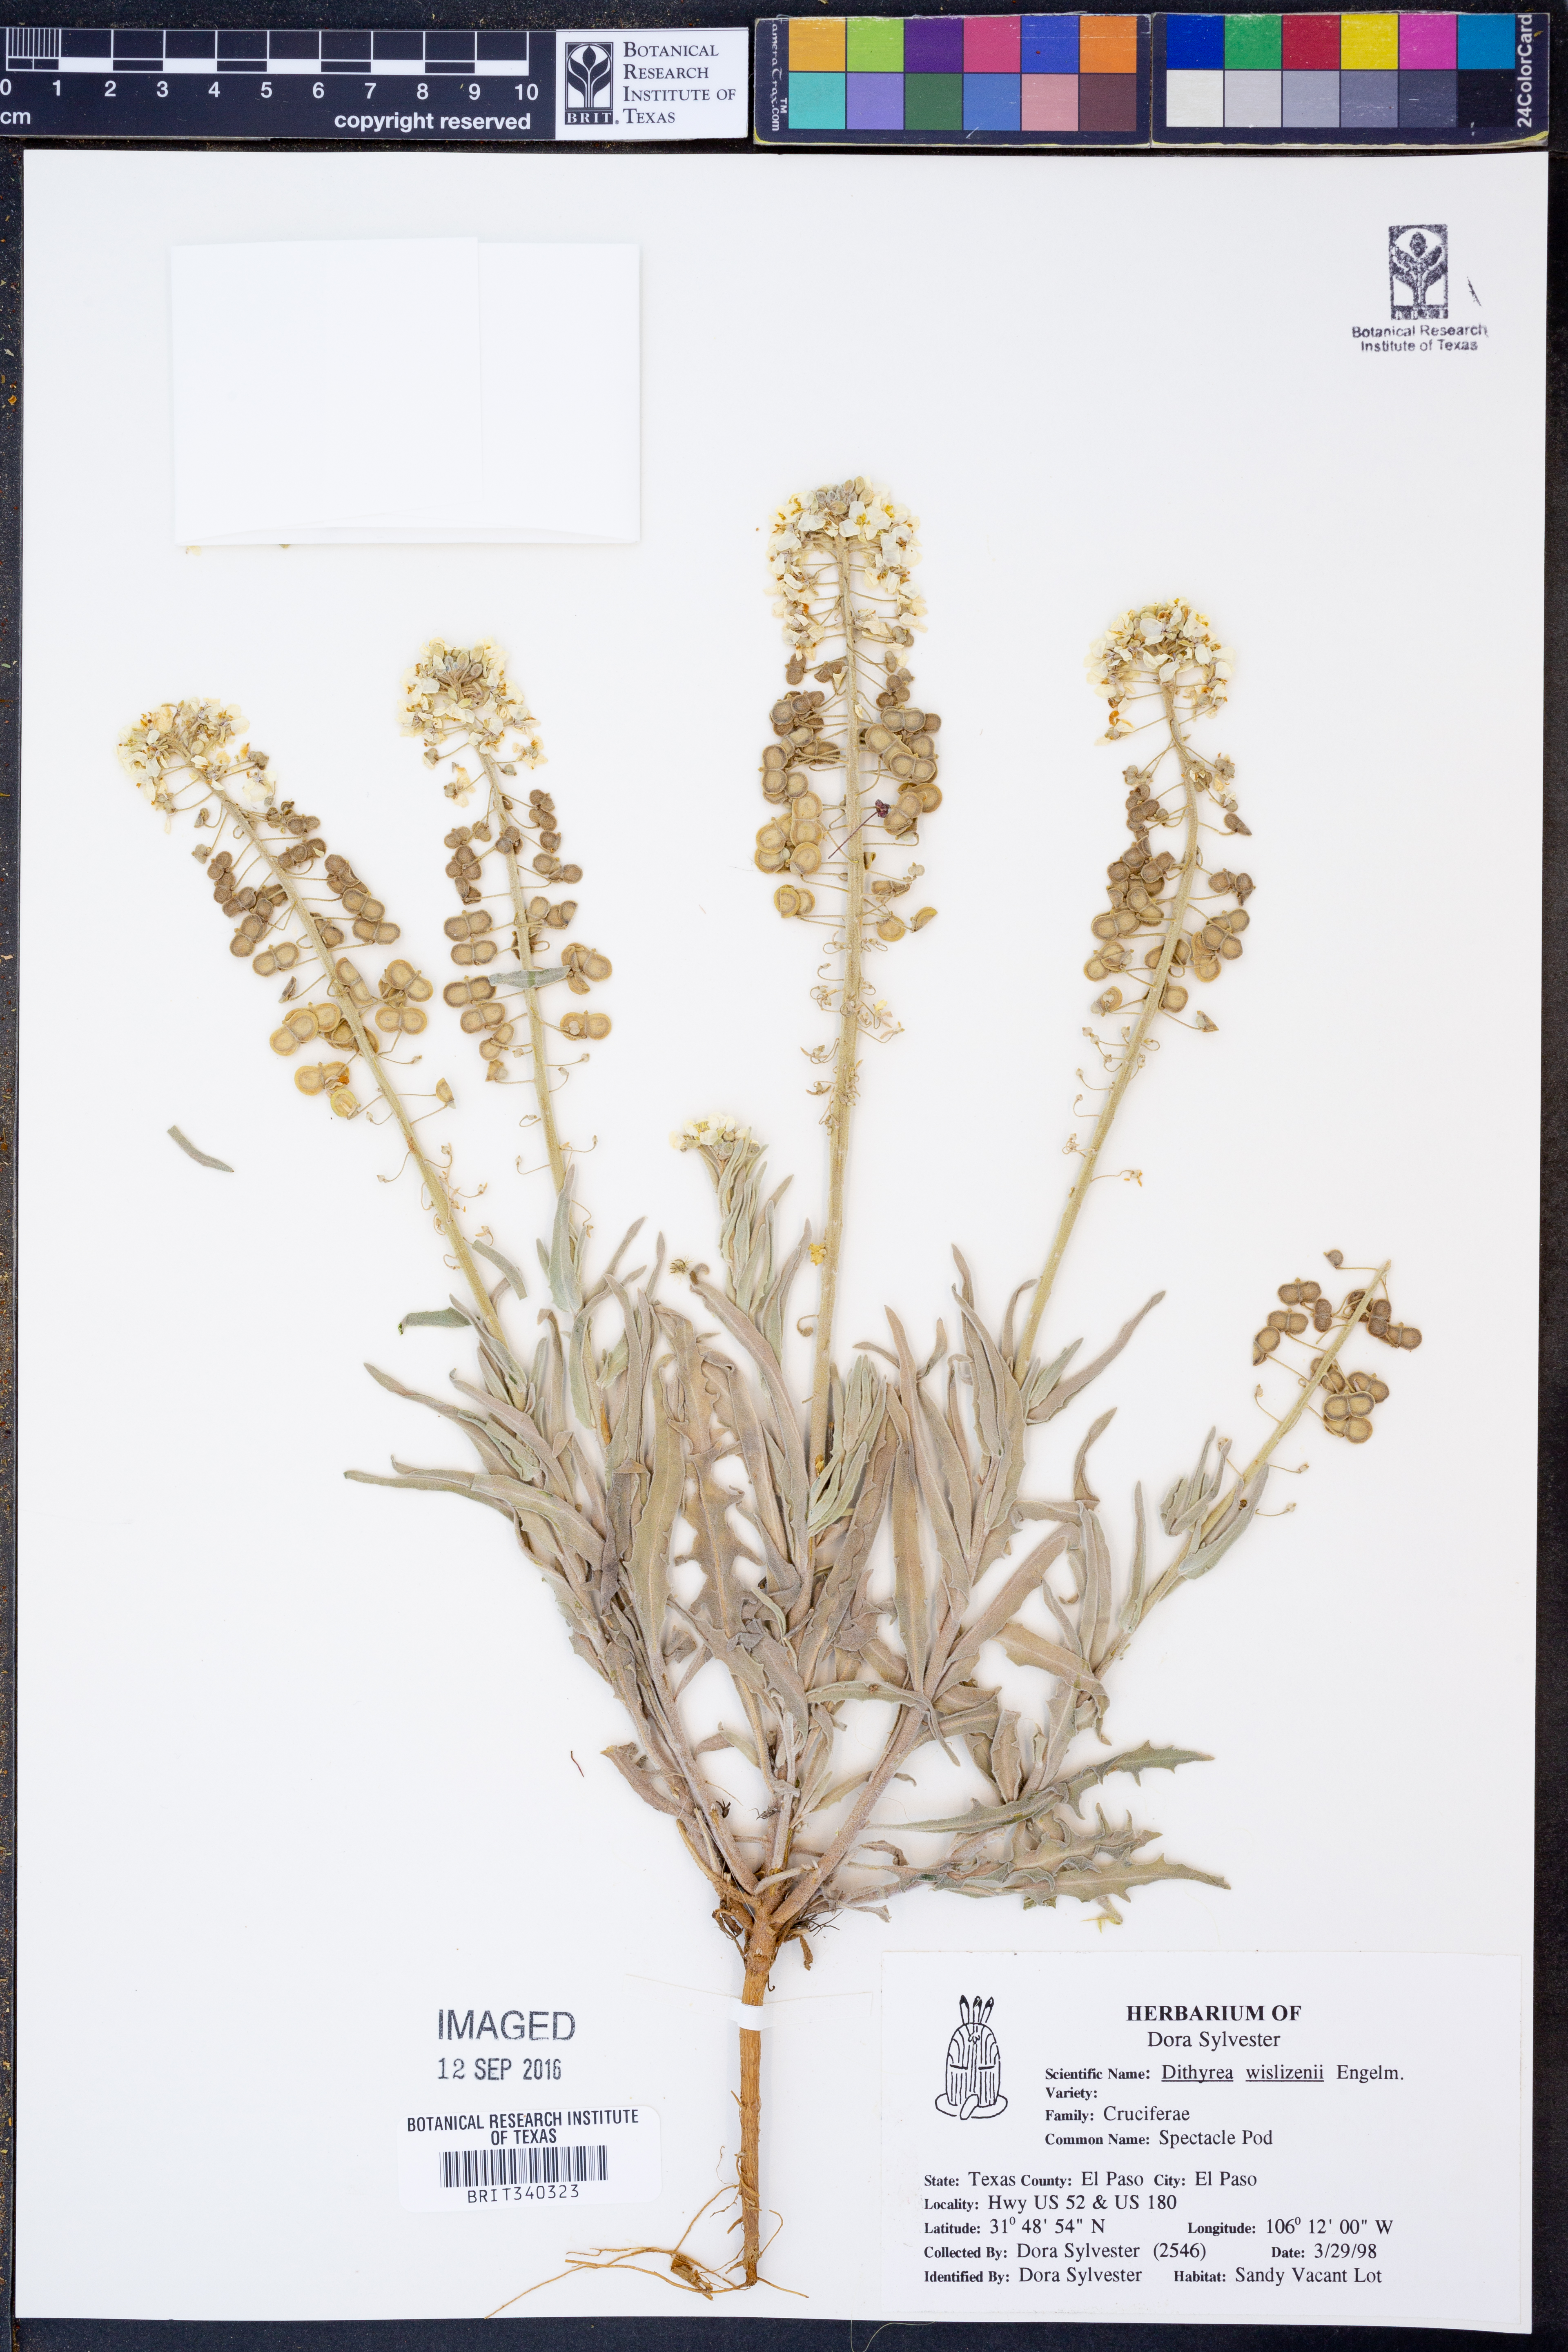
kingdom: Plantae
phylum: Tracheophyta
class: Magnoliopsida
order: Brassicales
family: Brassicaceae
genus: Dimorphocarpa
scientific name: Dimorphocarpa wislizenii
